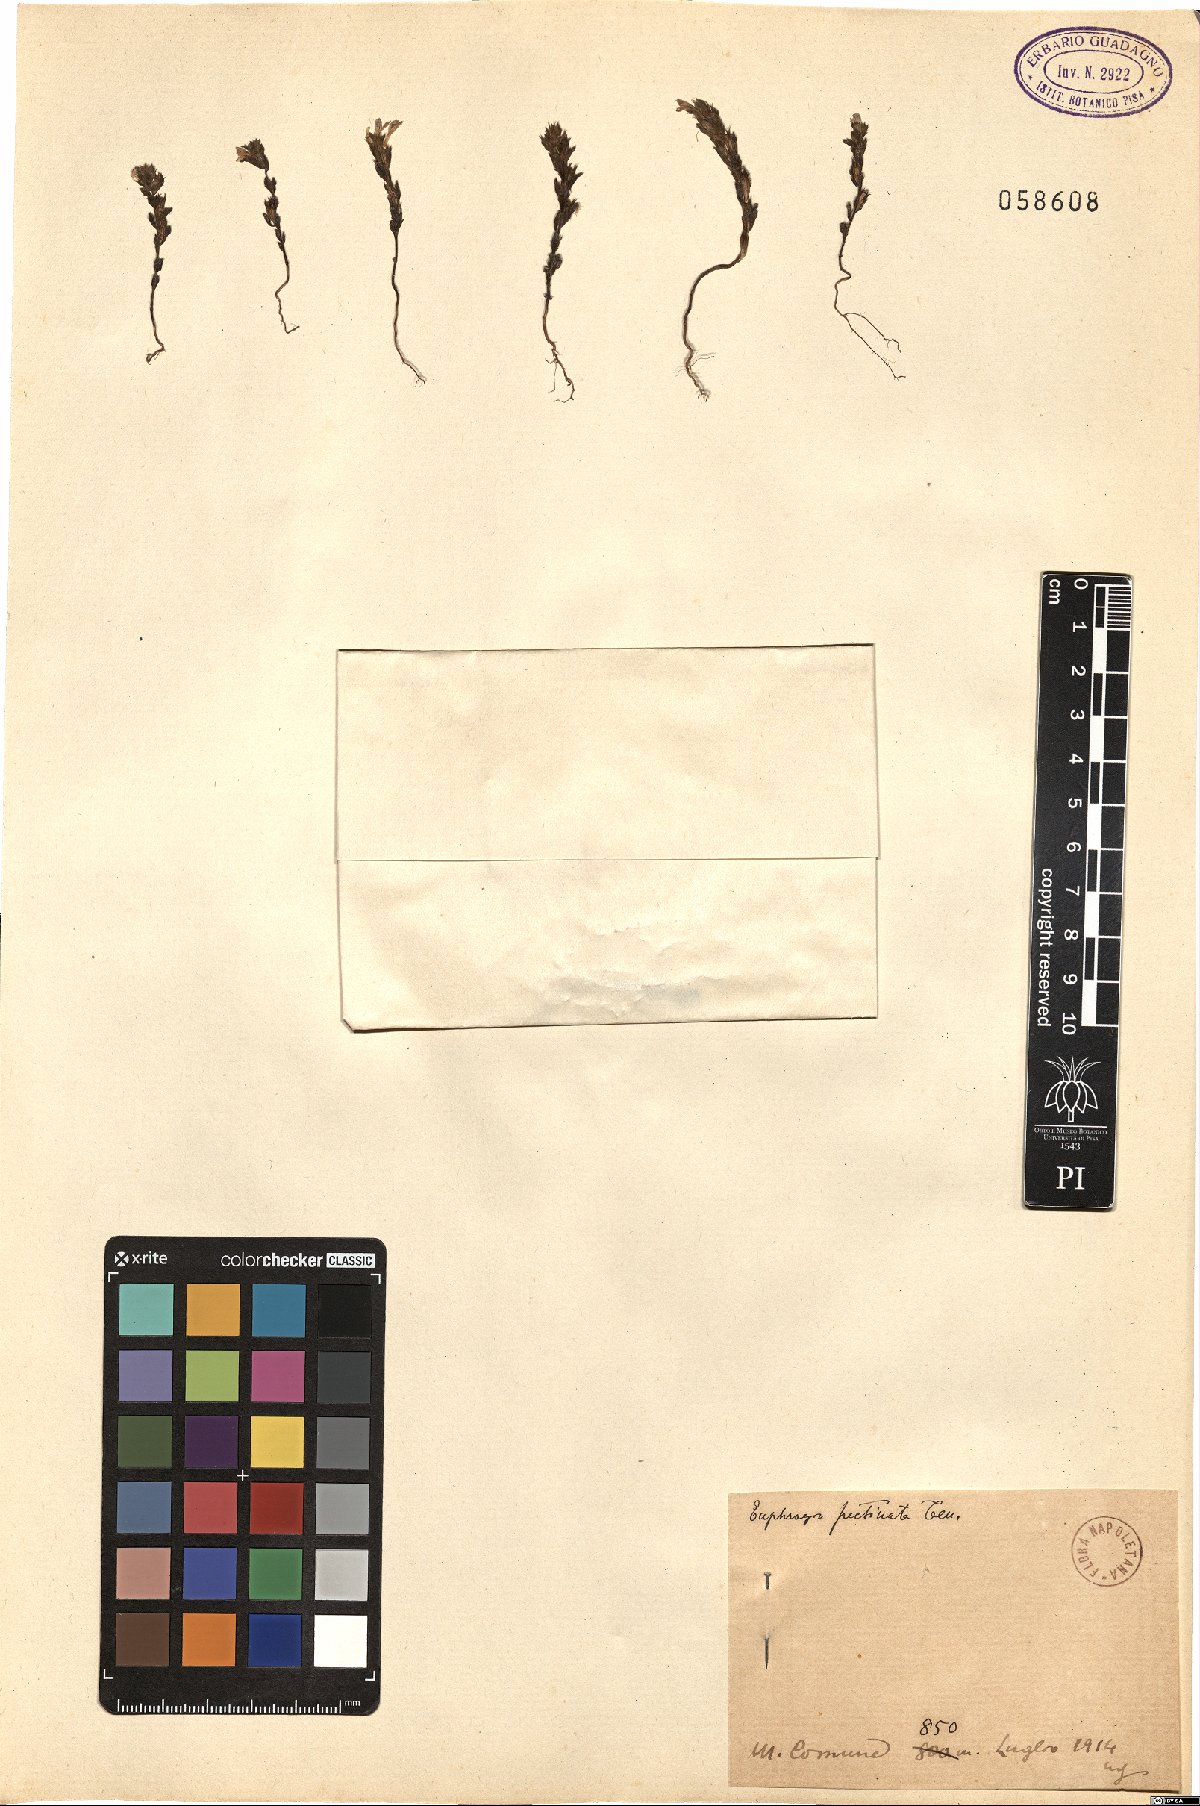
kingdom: Plantae
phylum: Tracheophyta
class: Magnoliopsida
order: Lamiales
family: Orobanchaceae
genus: Euphrasia
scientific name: Euphrasia pectinata
